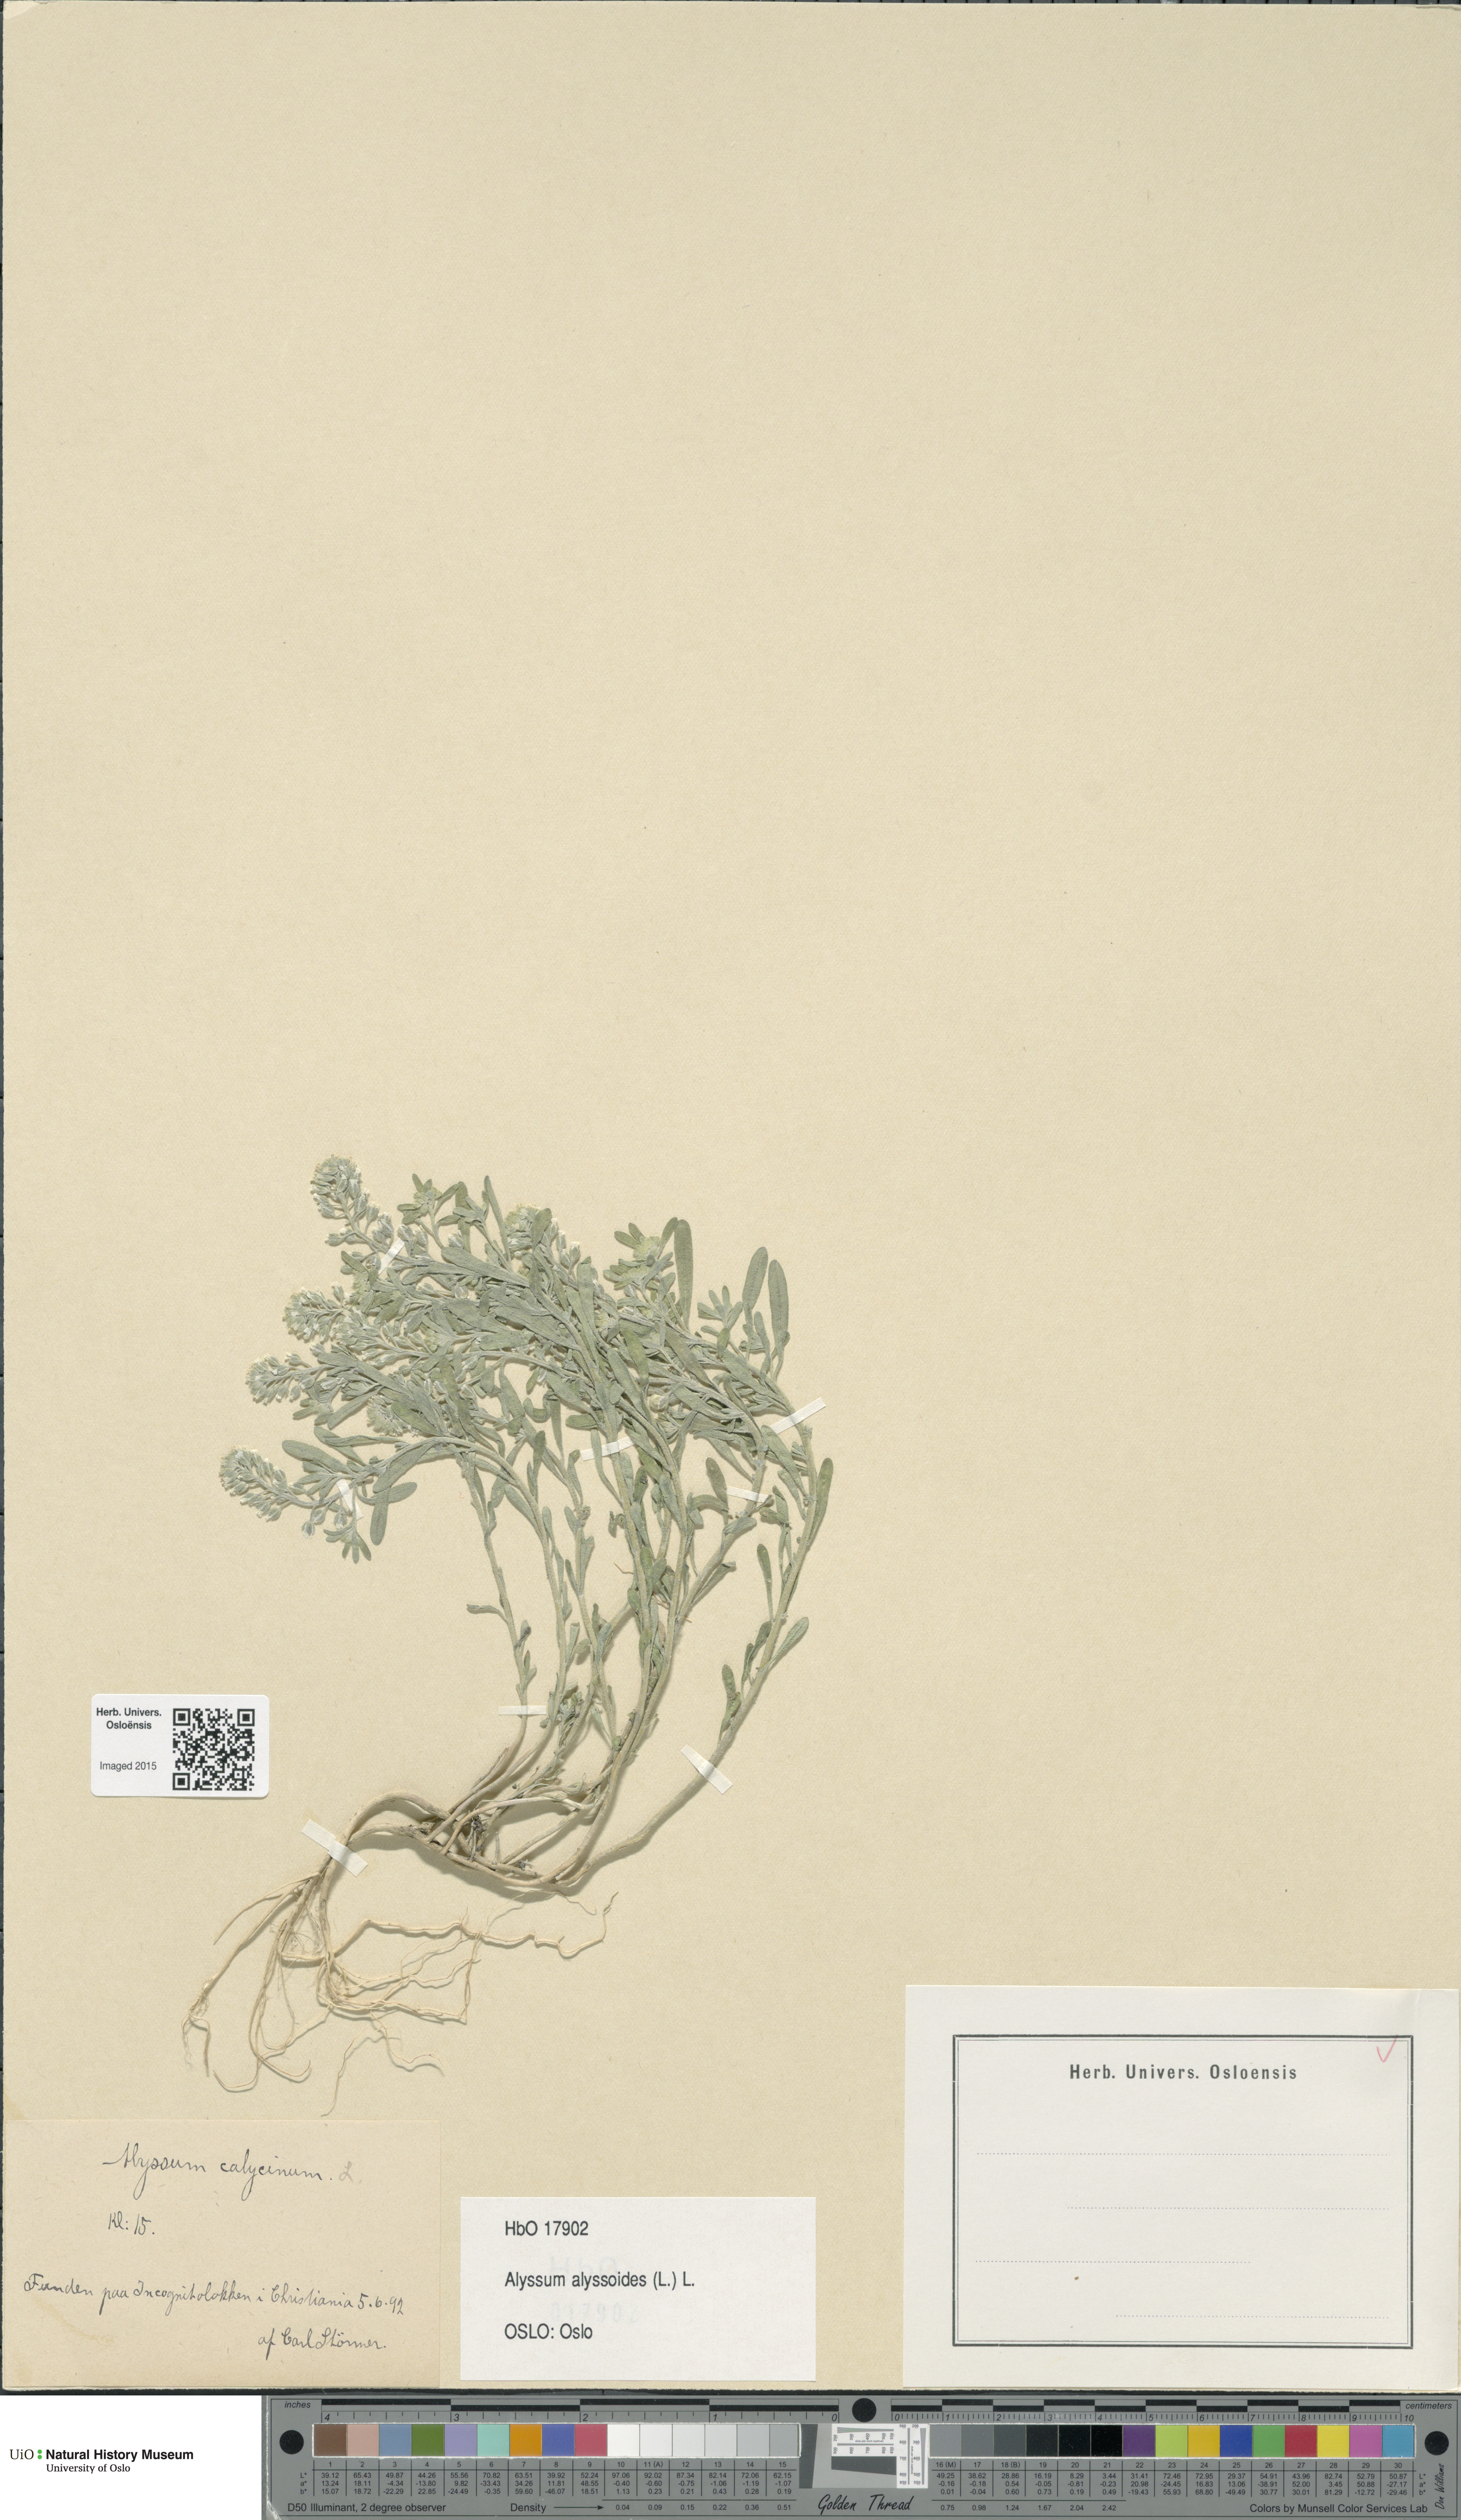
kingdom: Plantae
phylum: Tracheophyta
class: Magnoliopsida
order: Brassicales
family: Brassicaceae
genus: Alyssum
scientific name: Alyssum alyssoides
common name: Small alison
